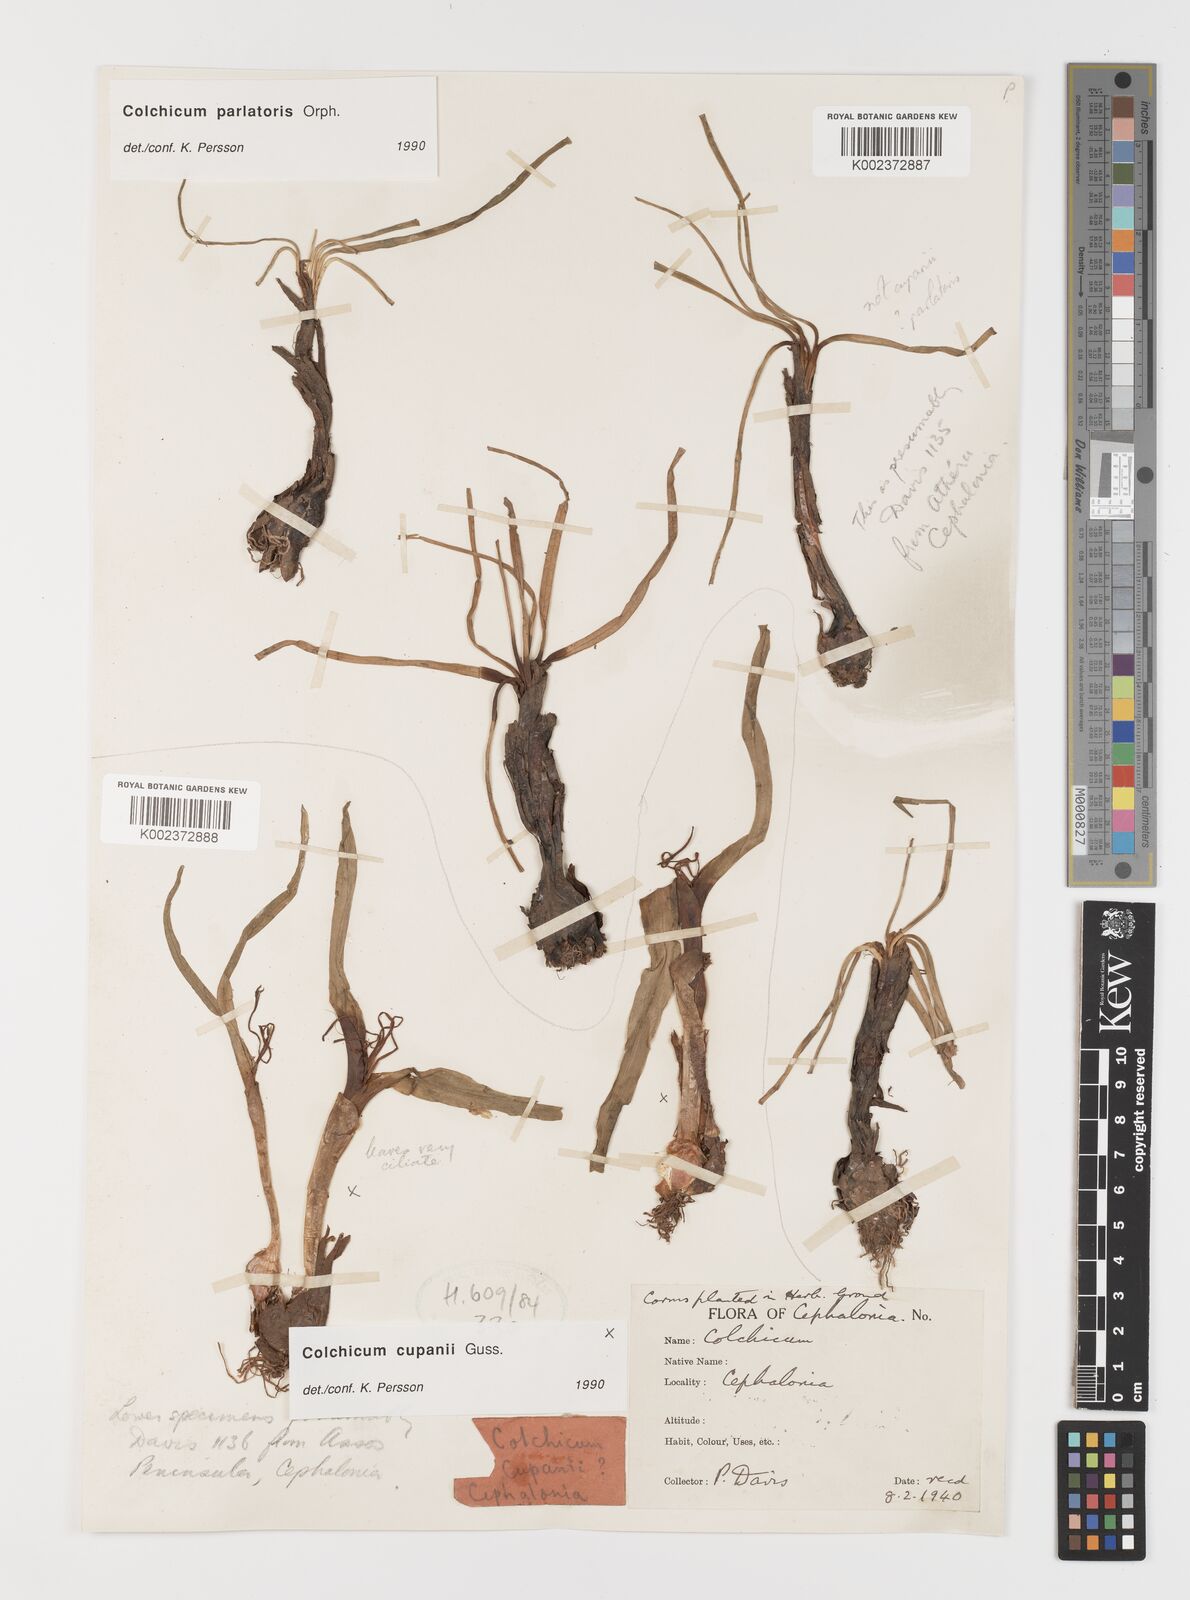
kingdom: Plantae
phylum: Tracheophyta
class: Liliopsida
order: Liliales
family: Colchicaceae
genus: Colchicum
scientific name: Colchicum cupanii
